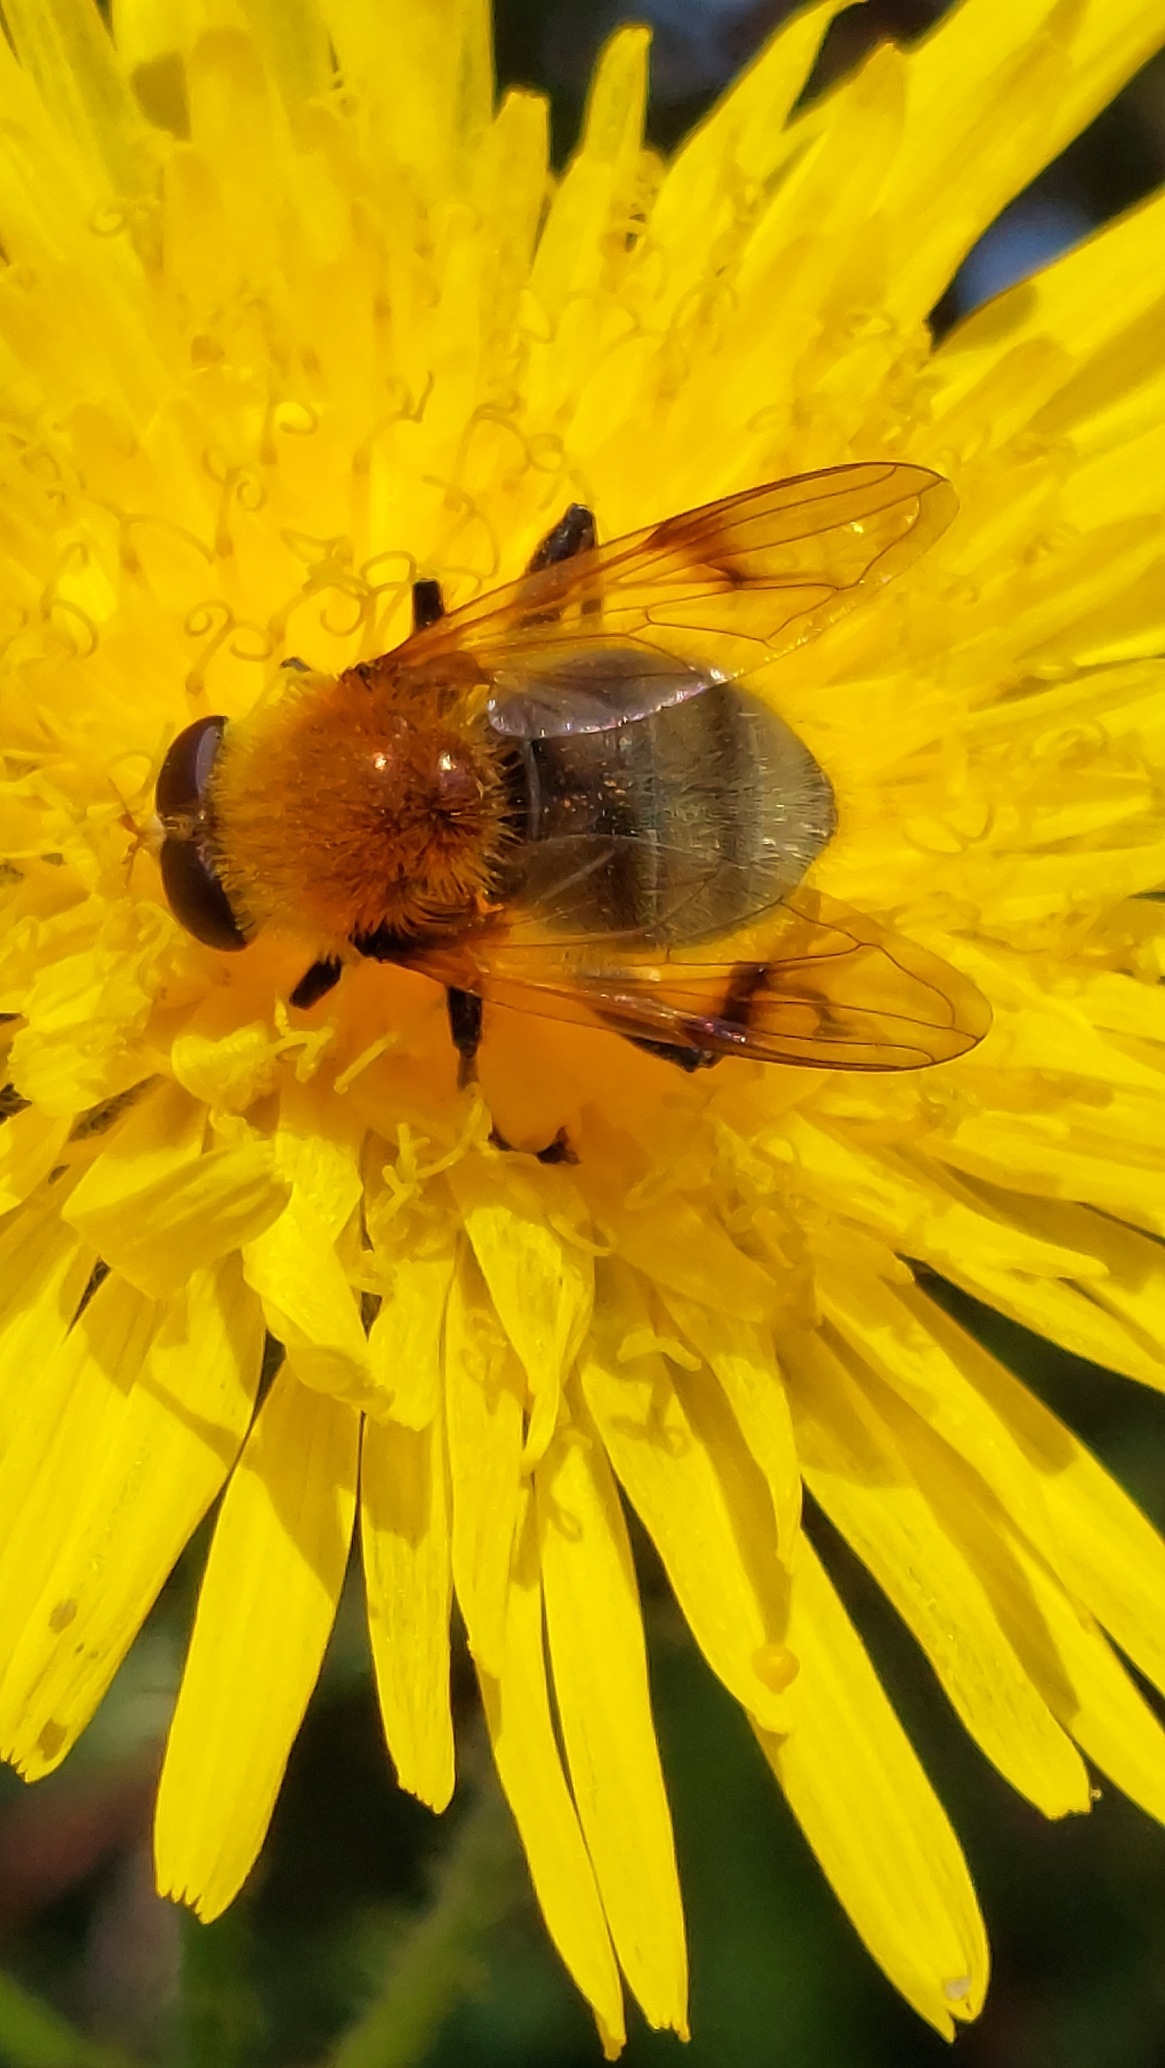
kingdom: Animalia
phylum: Arthropoda
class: Insecta
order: Diptera
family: Syrphidae
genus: Sericomyia
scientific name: Sericomyia superbiens
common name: Brun bjørnesvirreflue
